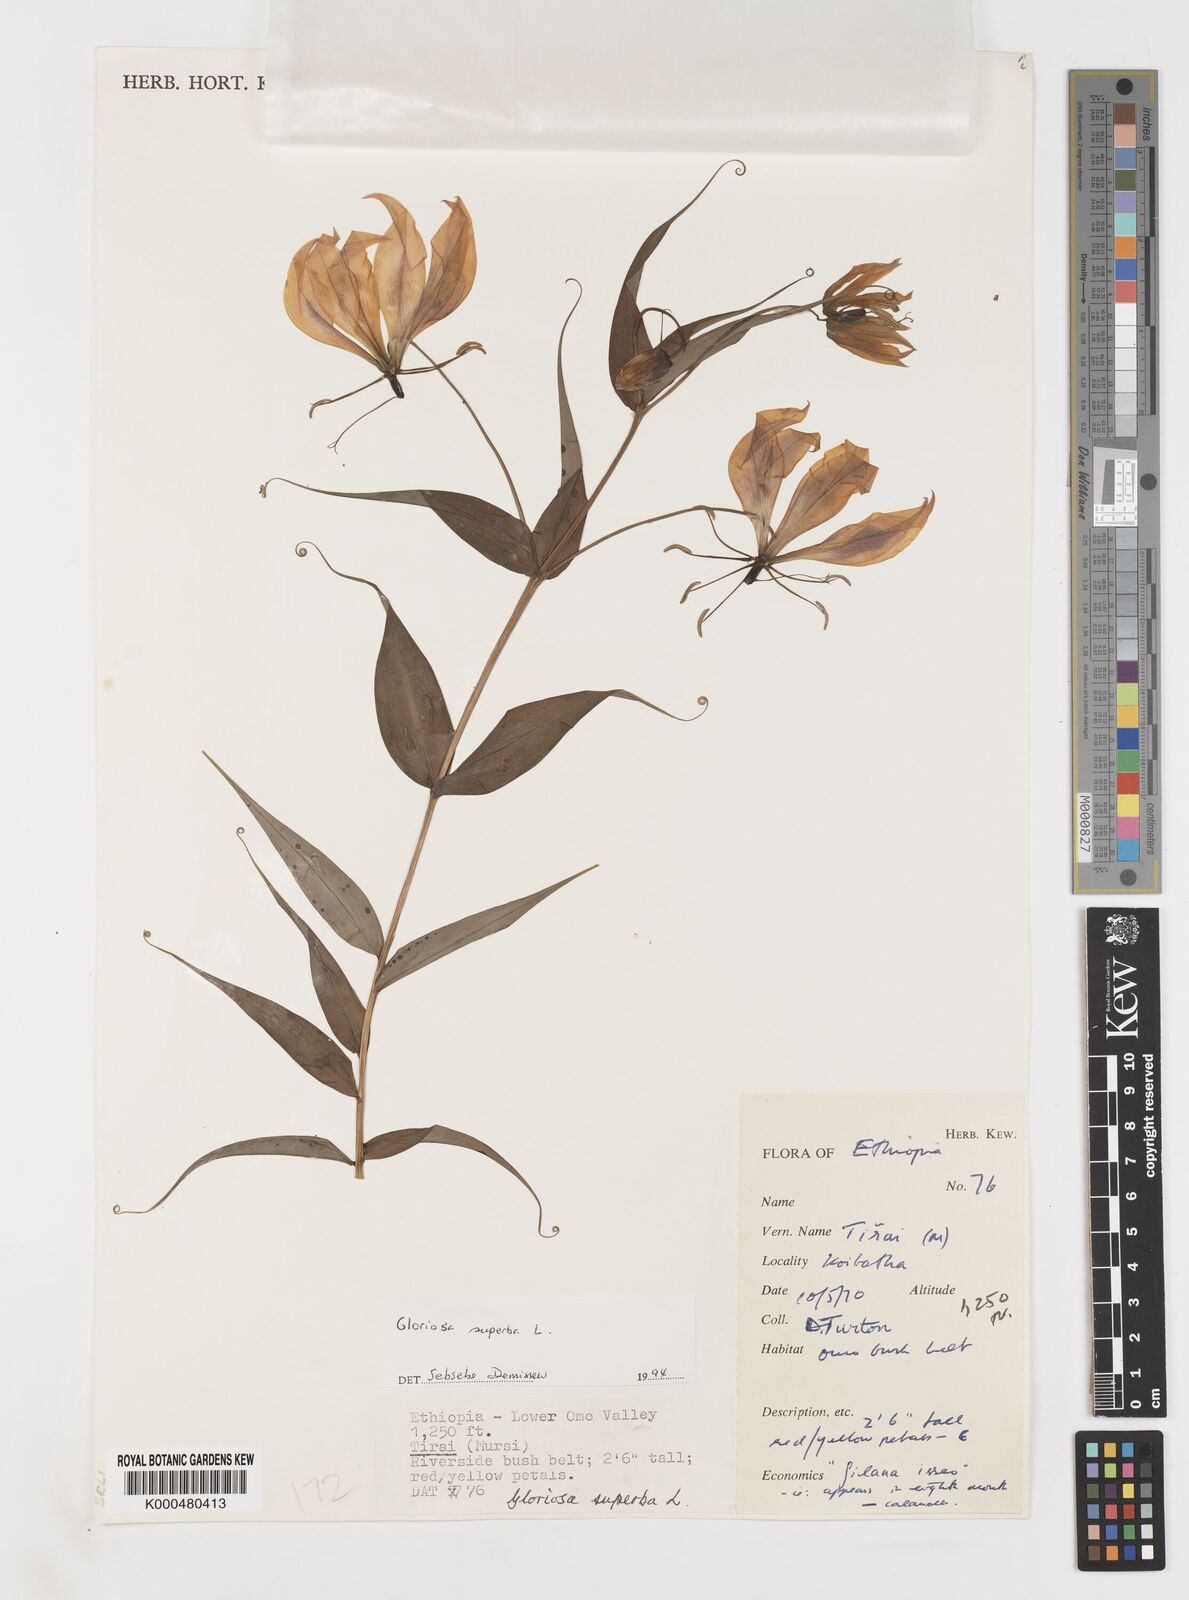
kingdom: Plantae
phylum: Tracheophyta
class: Liliopsida
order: Liliales
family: Colchicaceae
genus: Gloriosa
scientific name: Gloriosa superba
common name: Flame lily
